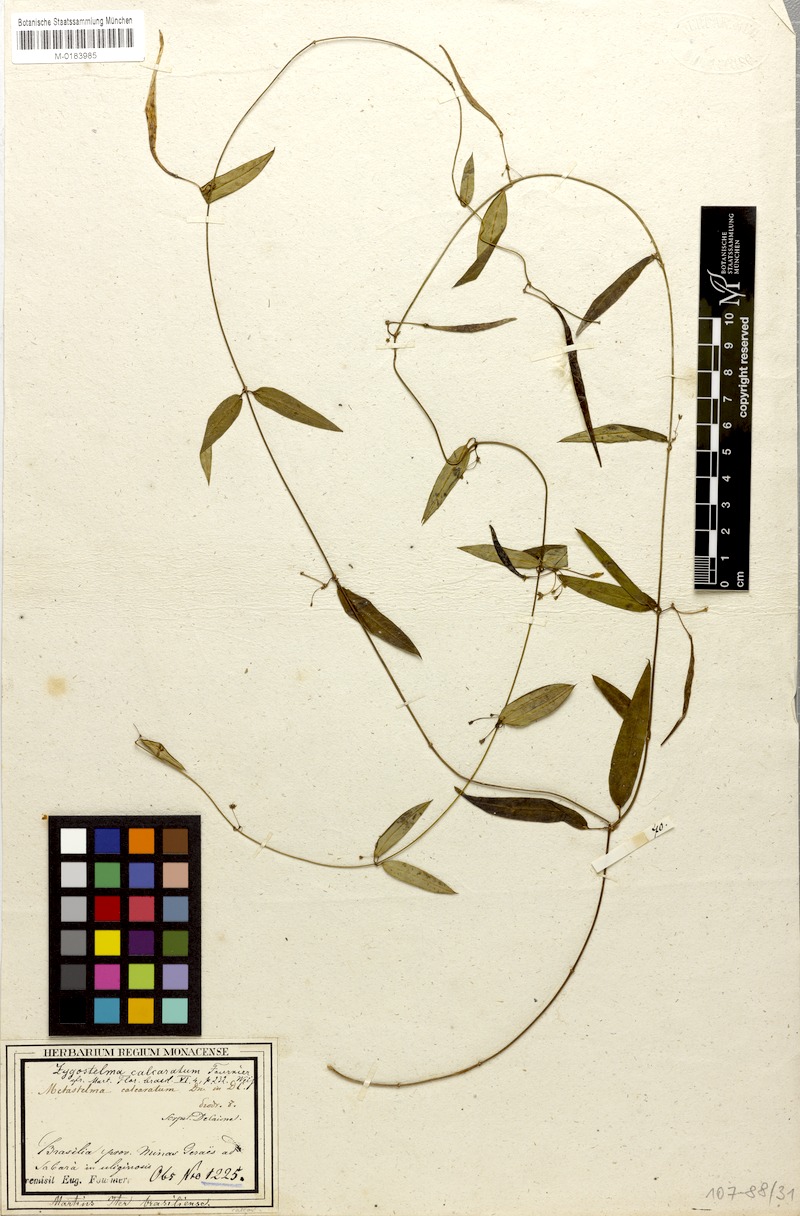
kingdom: Plantae
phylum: Tracheophyta
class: Magnoliopsida
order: Gentianales
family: Apocynaceae
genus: Petalostelma
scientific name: Petalostelma calcaratum
